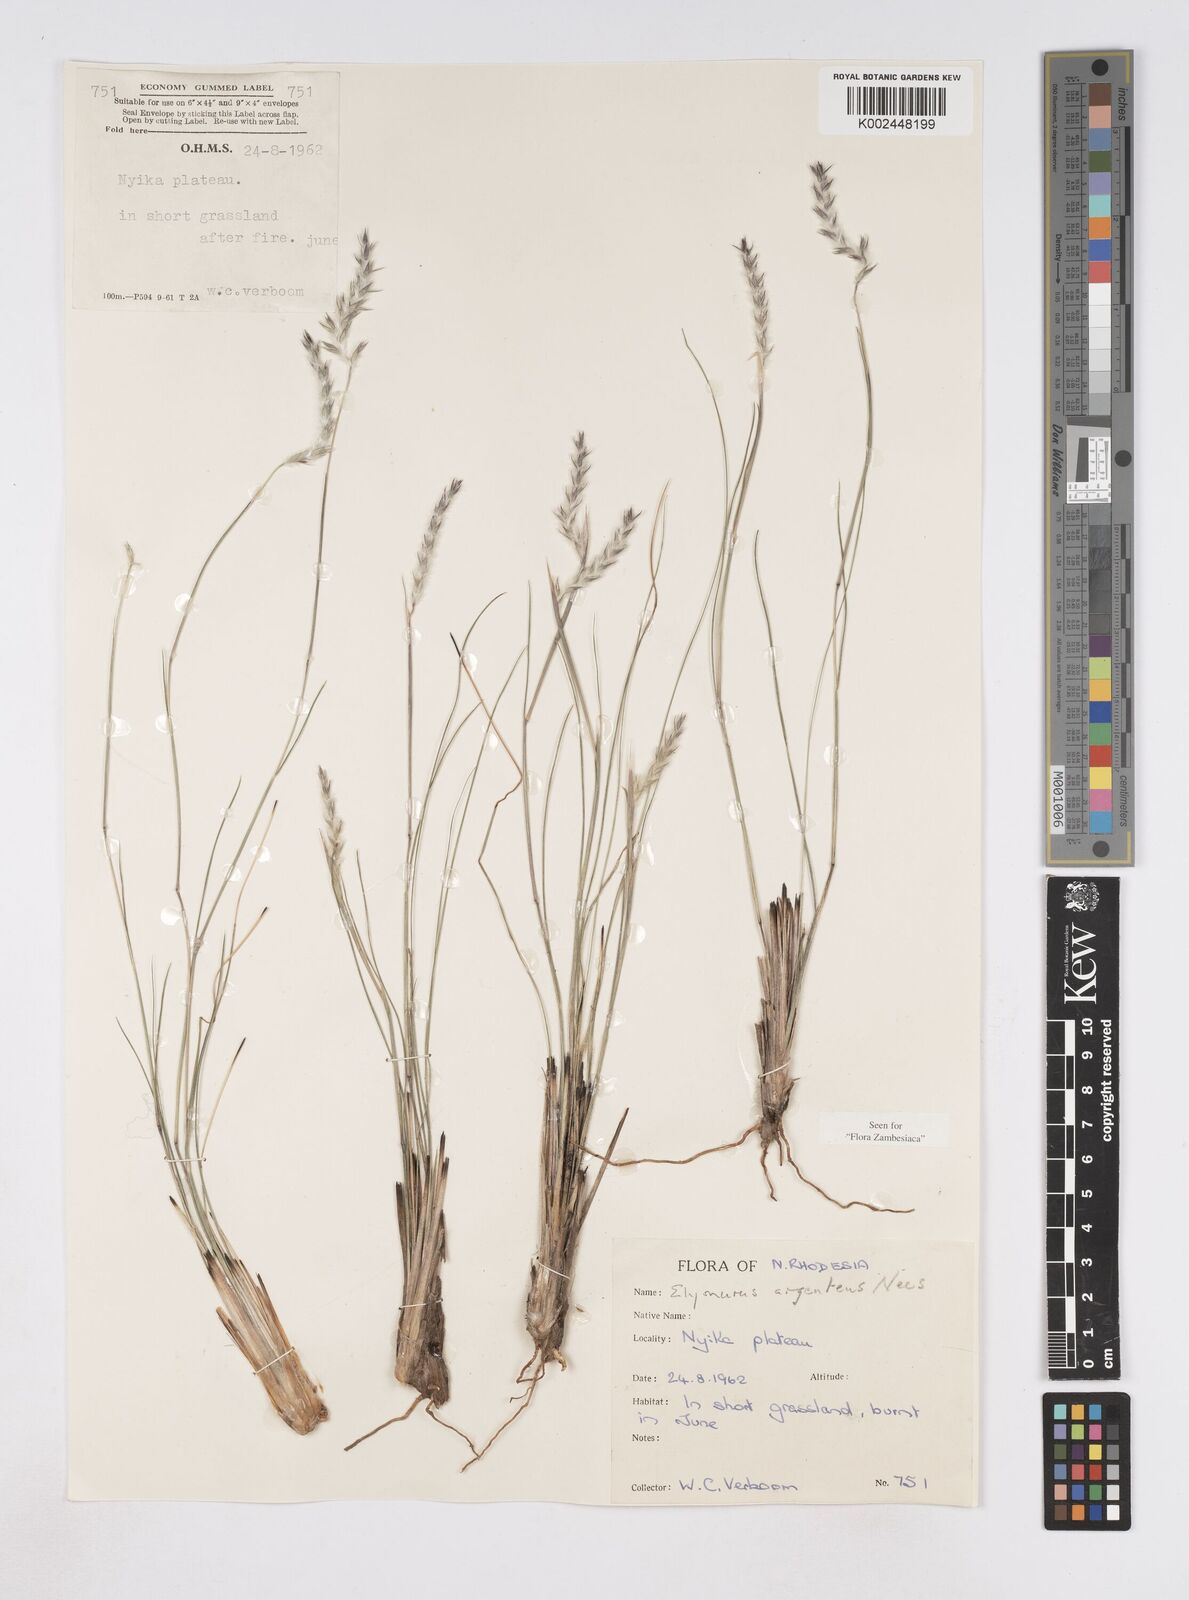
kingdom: Plantae
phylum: Tracheophyta
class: Liliopsida
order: Poales
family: Poaceae
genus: Elionurus
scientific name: Elionurus muticus
